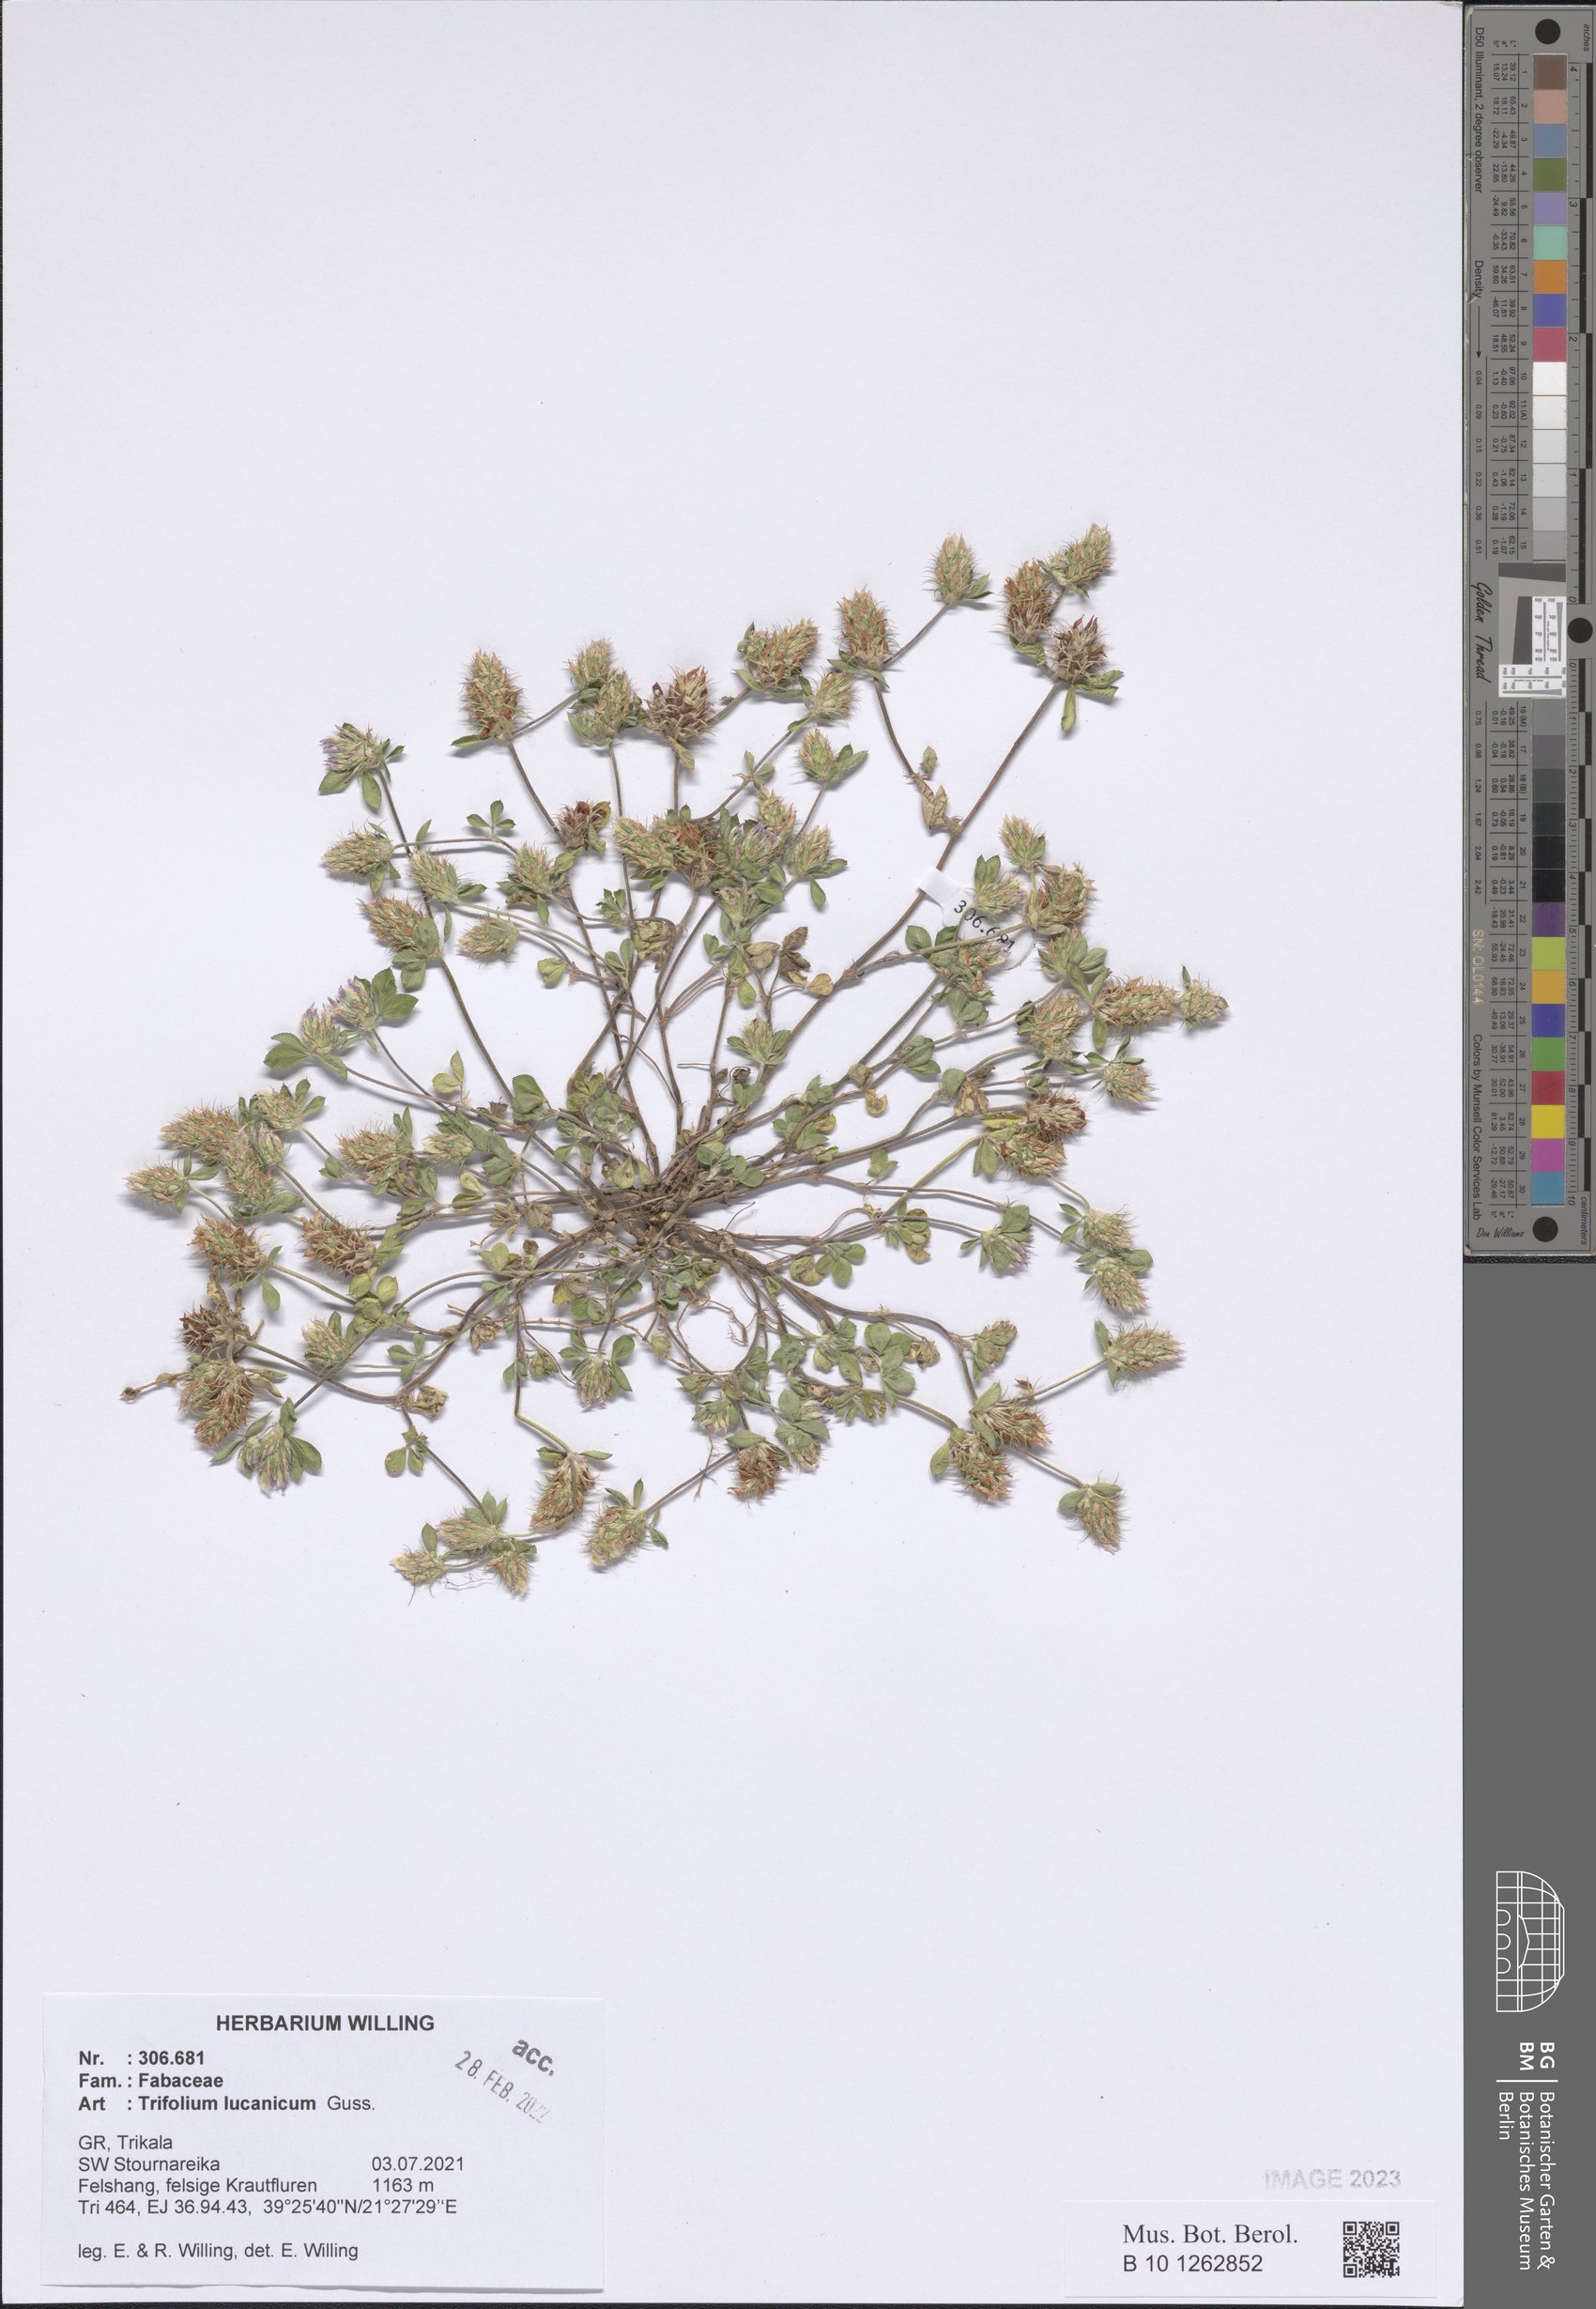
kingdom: Plantae
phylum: Tracheophyta
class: Magnoliopsida
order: Fabales
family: Fabaceae
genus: Trifolium
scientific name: Trifolium lucanicum
